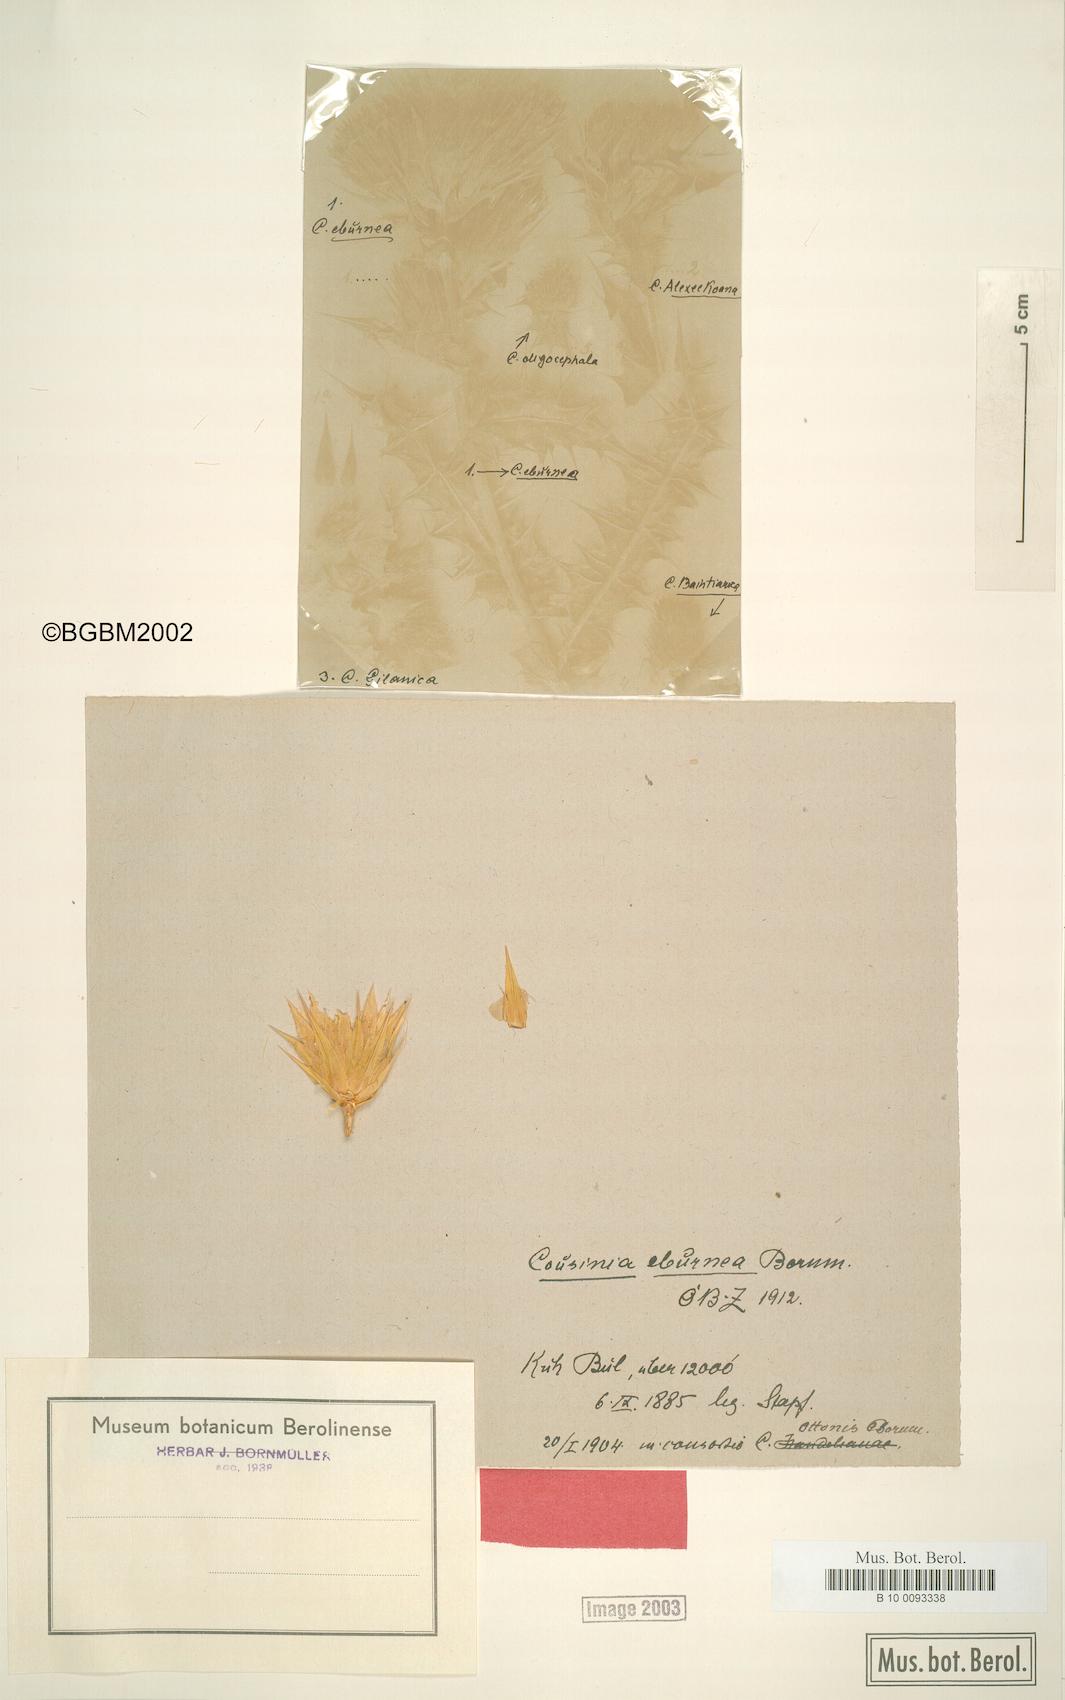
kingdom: Plantae
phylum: Tracheophyta
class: Magnoliopsida
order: Asterales
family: Asteraceae
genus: Cousinia
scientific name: Cousinia eburnea
